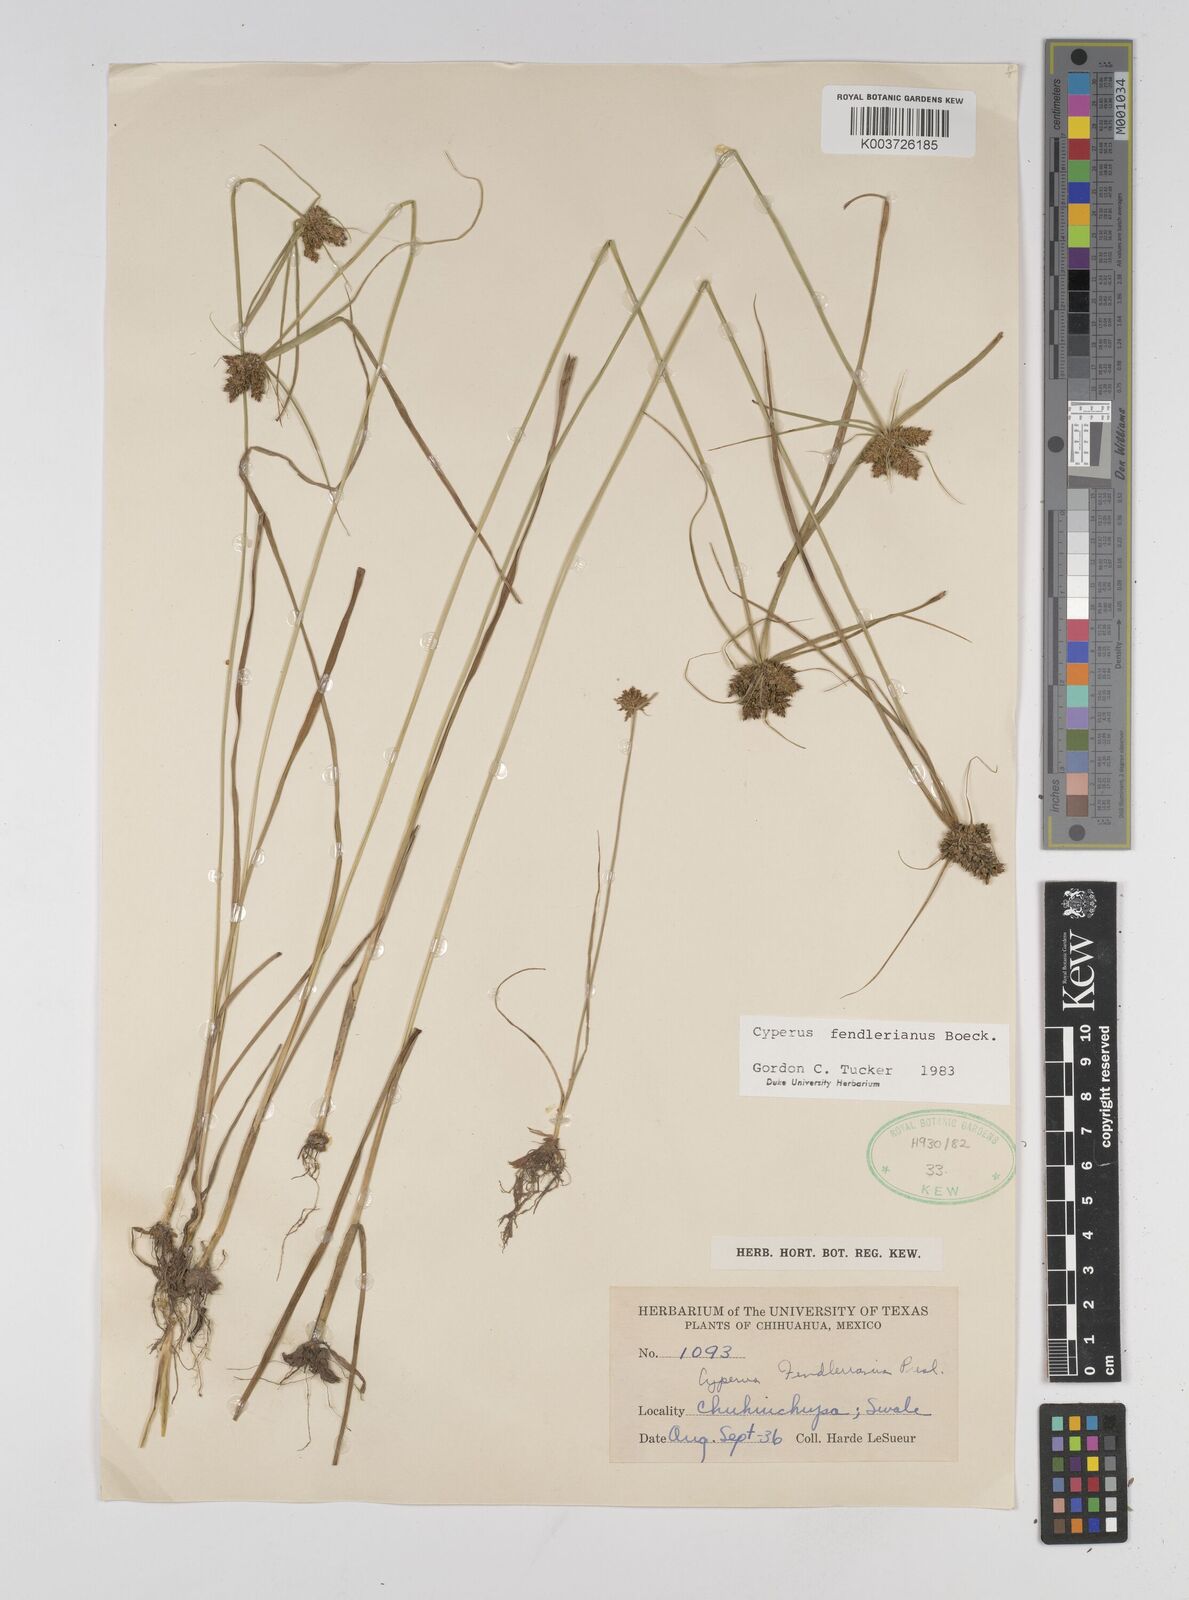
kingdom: Plantae
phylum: Tracheophyta
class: Liliopsida
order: Poales
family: Cyperaceae
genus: Cyperus
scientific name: Cyperus fendlerianus
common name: Fendler flat sedge
